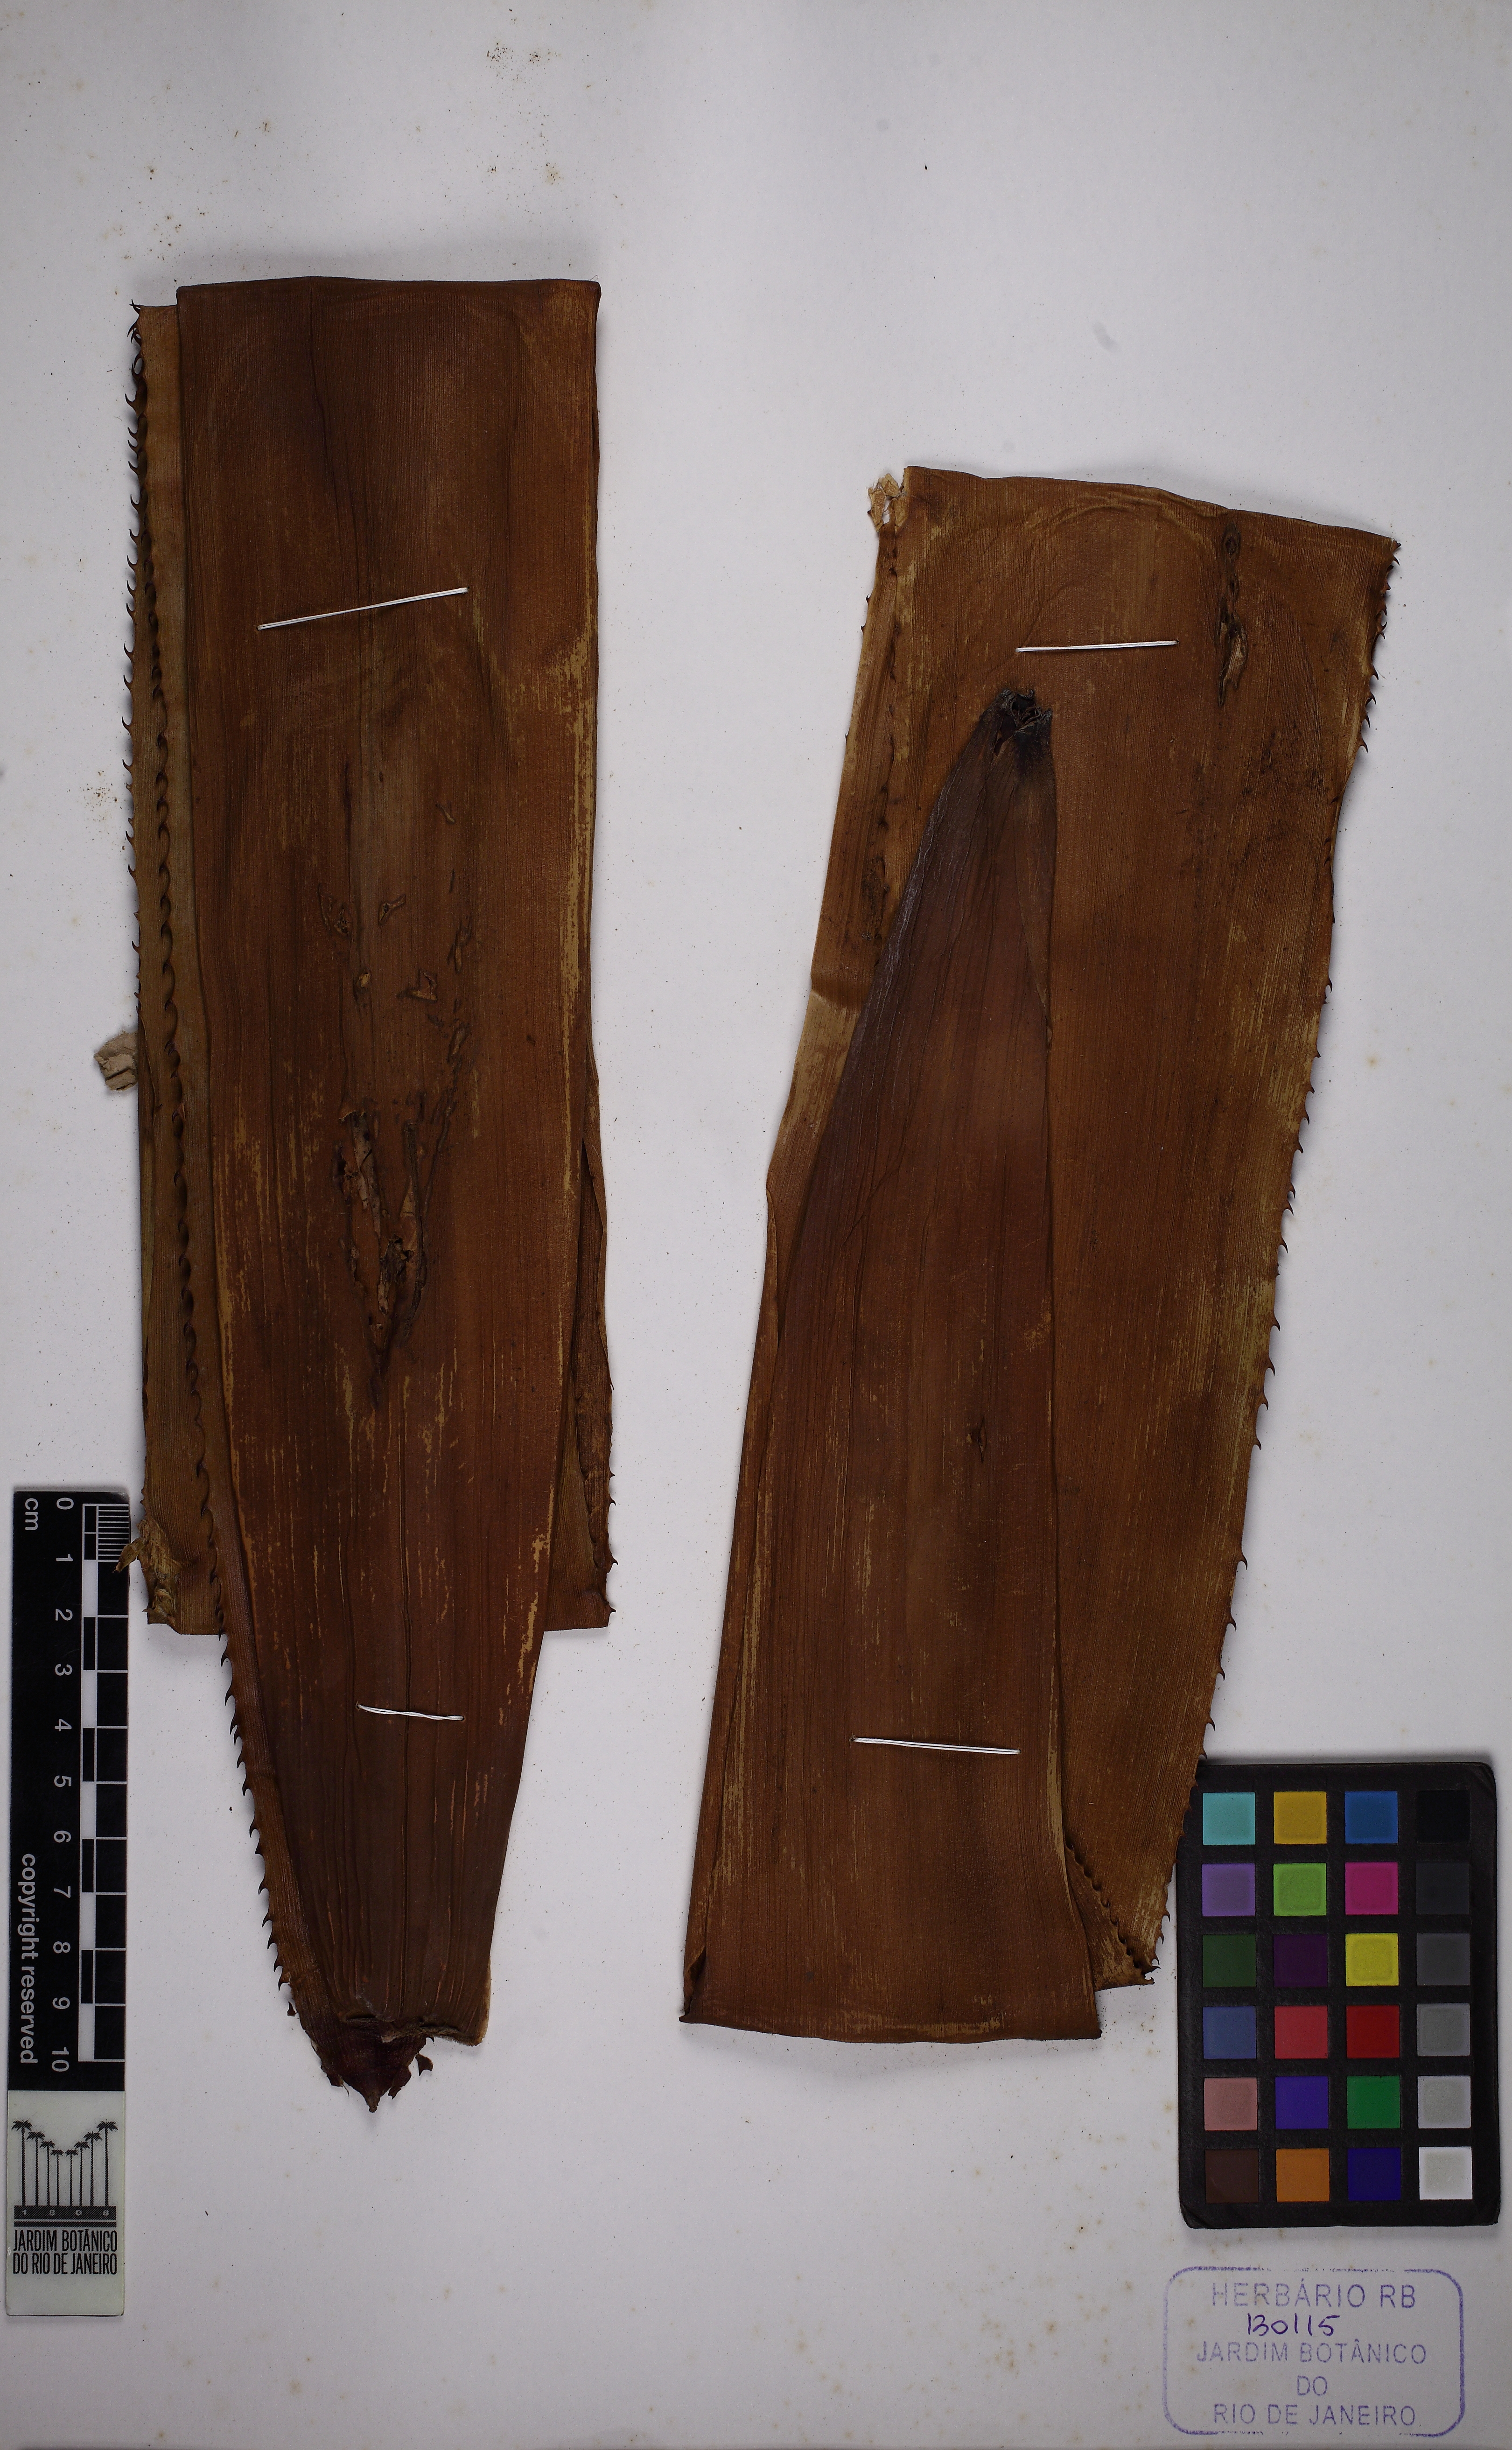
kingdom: Plantae
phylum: Tracheophyta
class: Liliopsida
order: Poales
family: Bromeliaceae
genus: Billbergia
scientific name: Billbergia porteana
